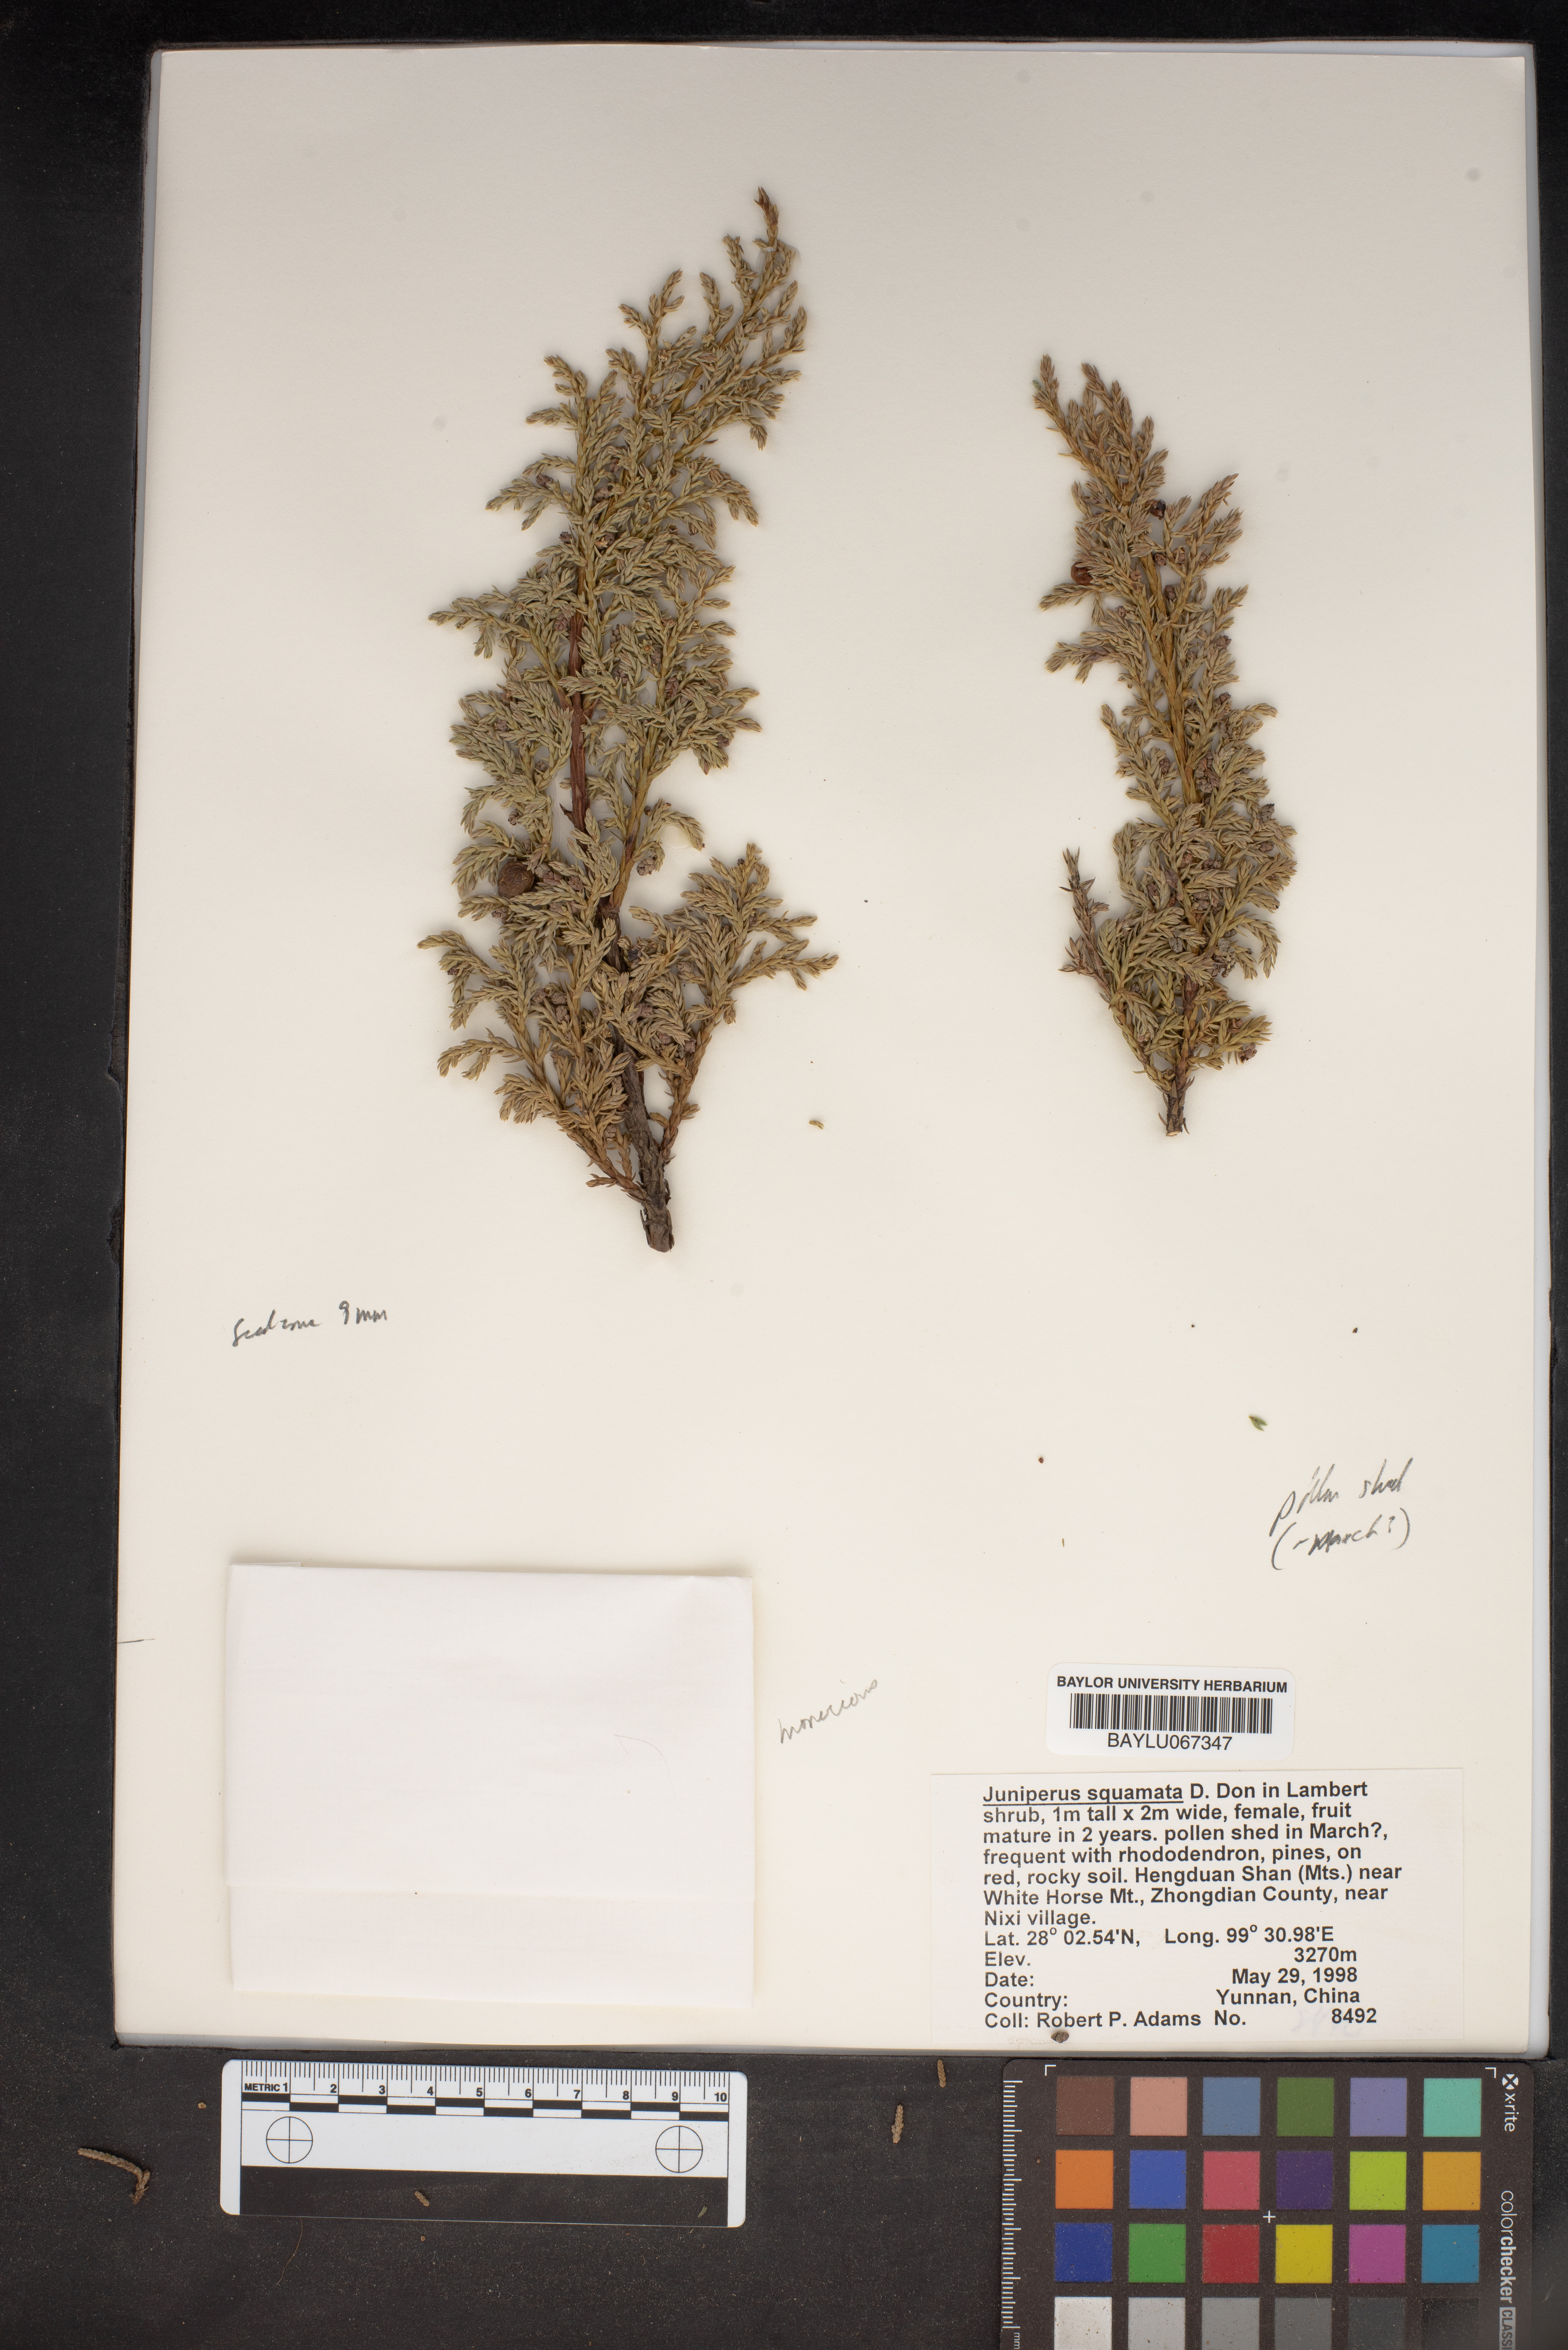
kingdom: Plantae
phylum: Tracheophyta
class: Pinopsida
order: Pinales
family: Cupressaceae
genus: Juniperus
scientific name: Juniperus squamata
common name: Flaky juniper
